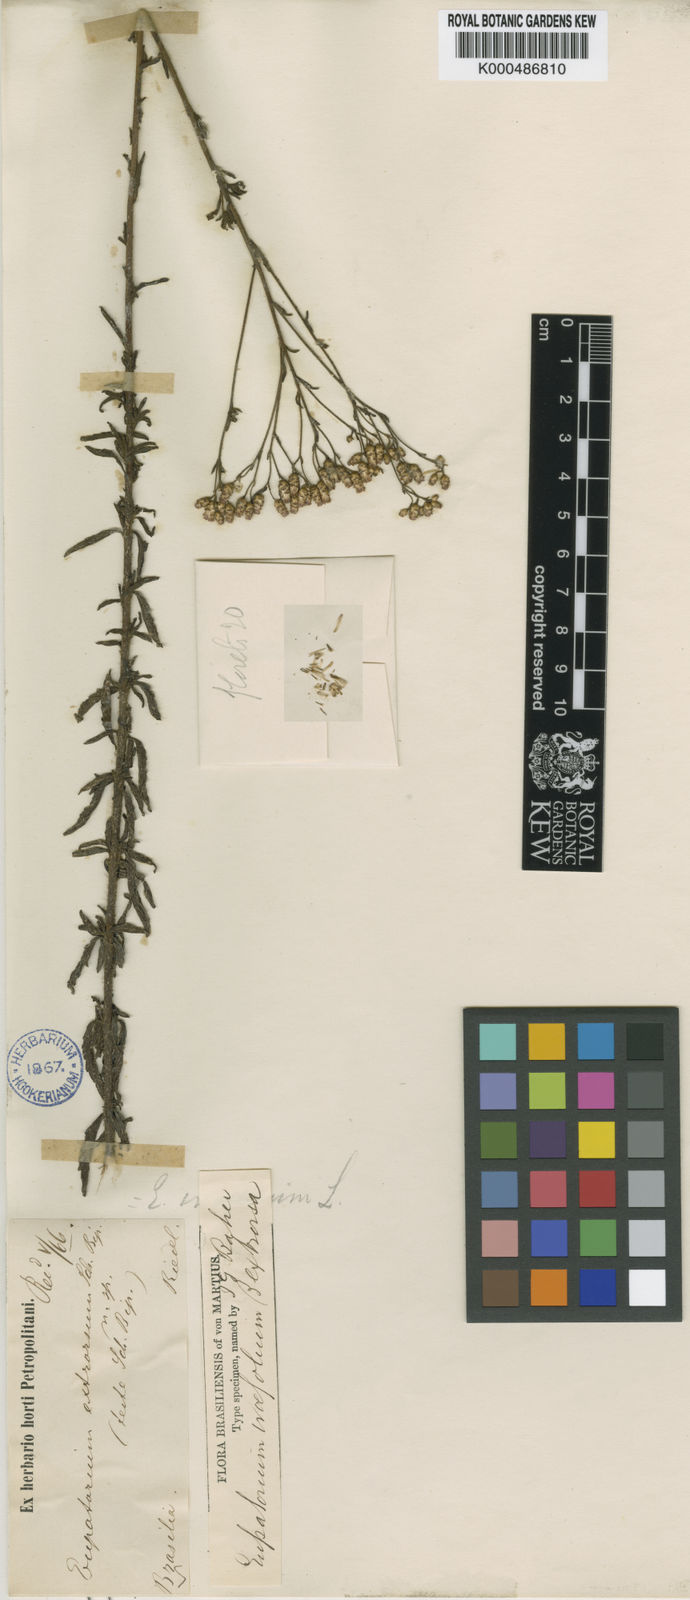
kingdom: Plantae
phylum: Tracheophyta
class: Magnoliopsida
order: Asterales
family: Asteraceae
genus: Chromolaena
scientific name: Chromolaena ivifolia
